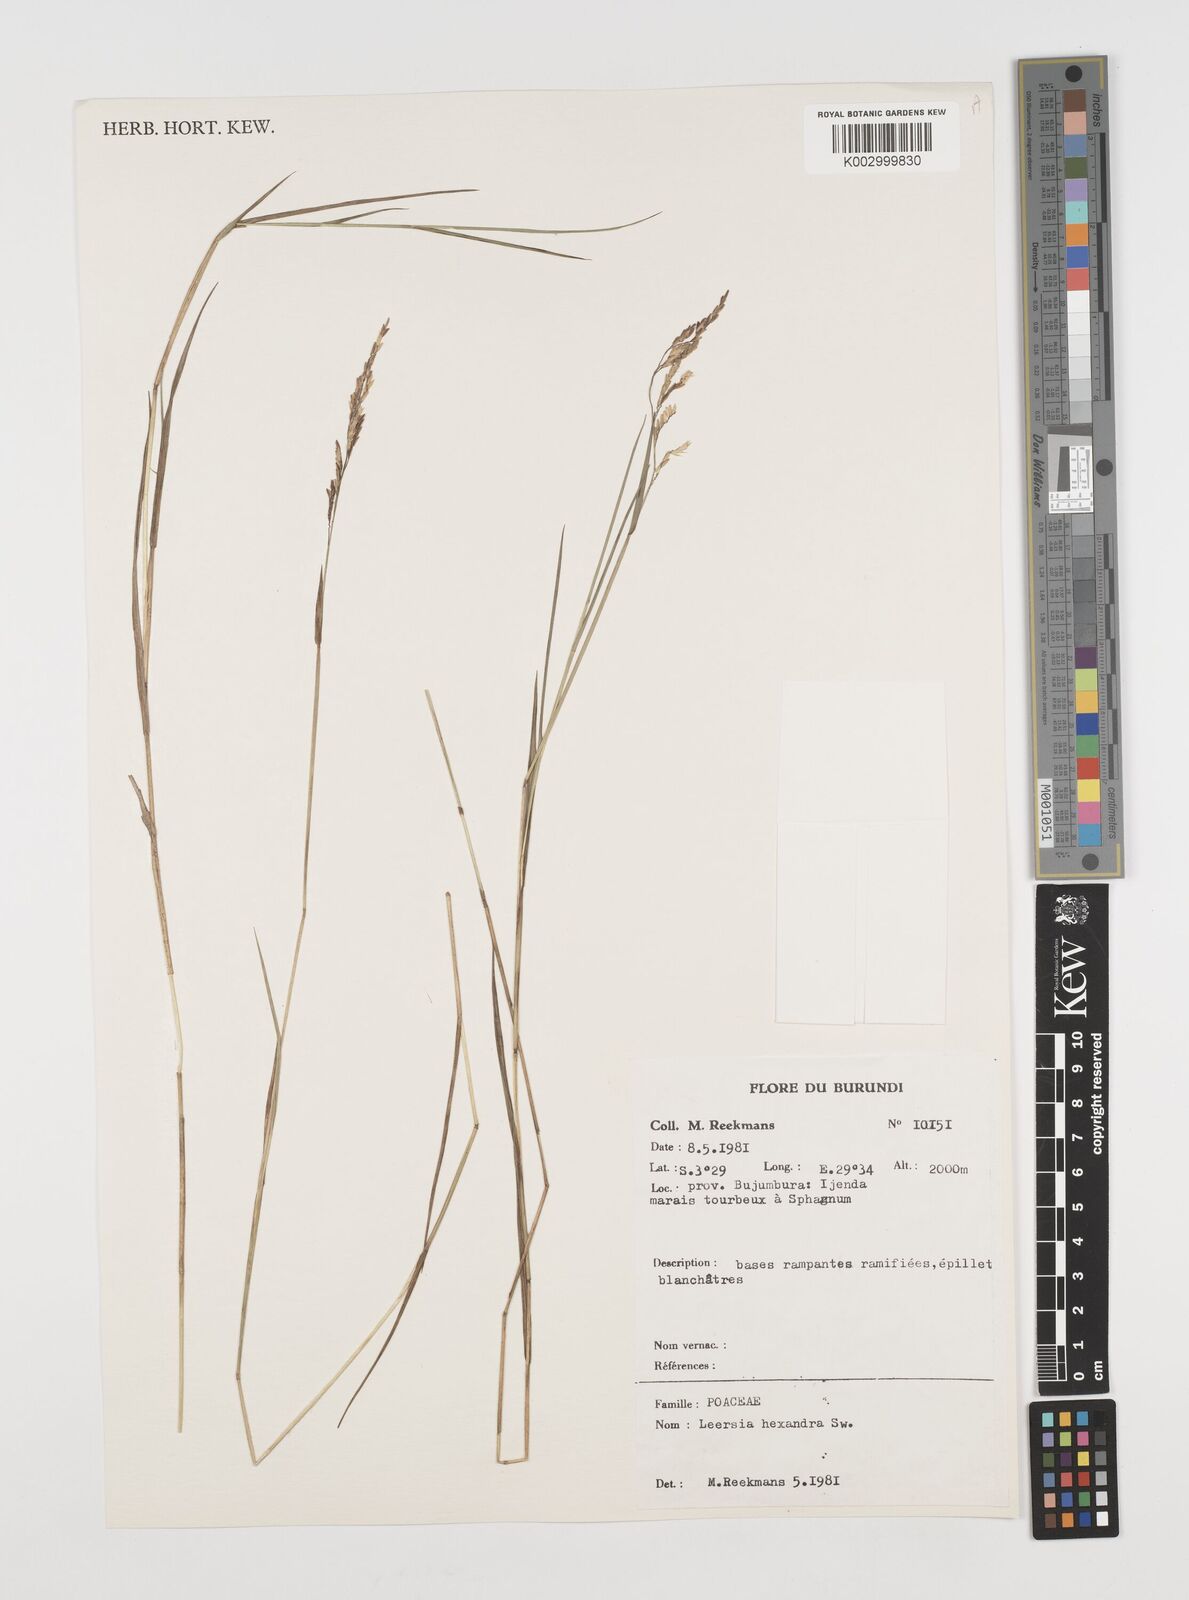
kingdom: Plantae
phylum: Tracheophyta
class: Liliopsida
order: Poales
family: Poaceae
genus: Leersia
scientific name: Leersia hexandra
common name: Southern cut grass
